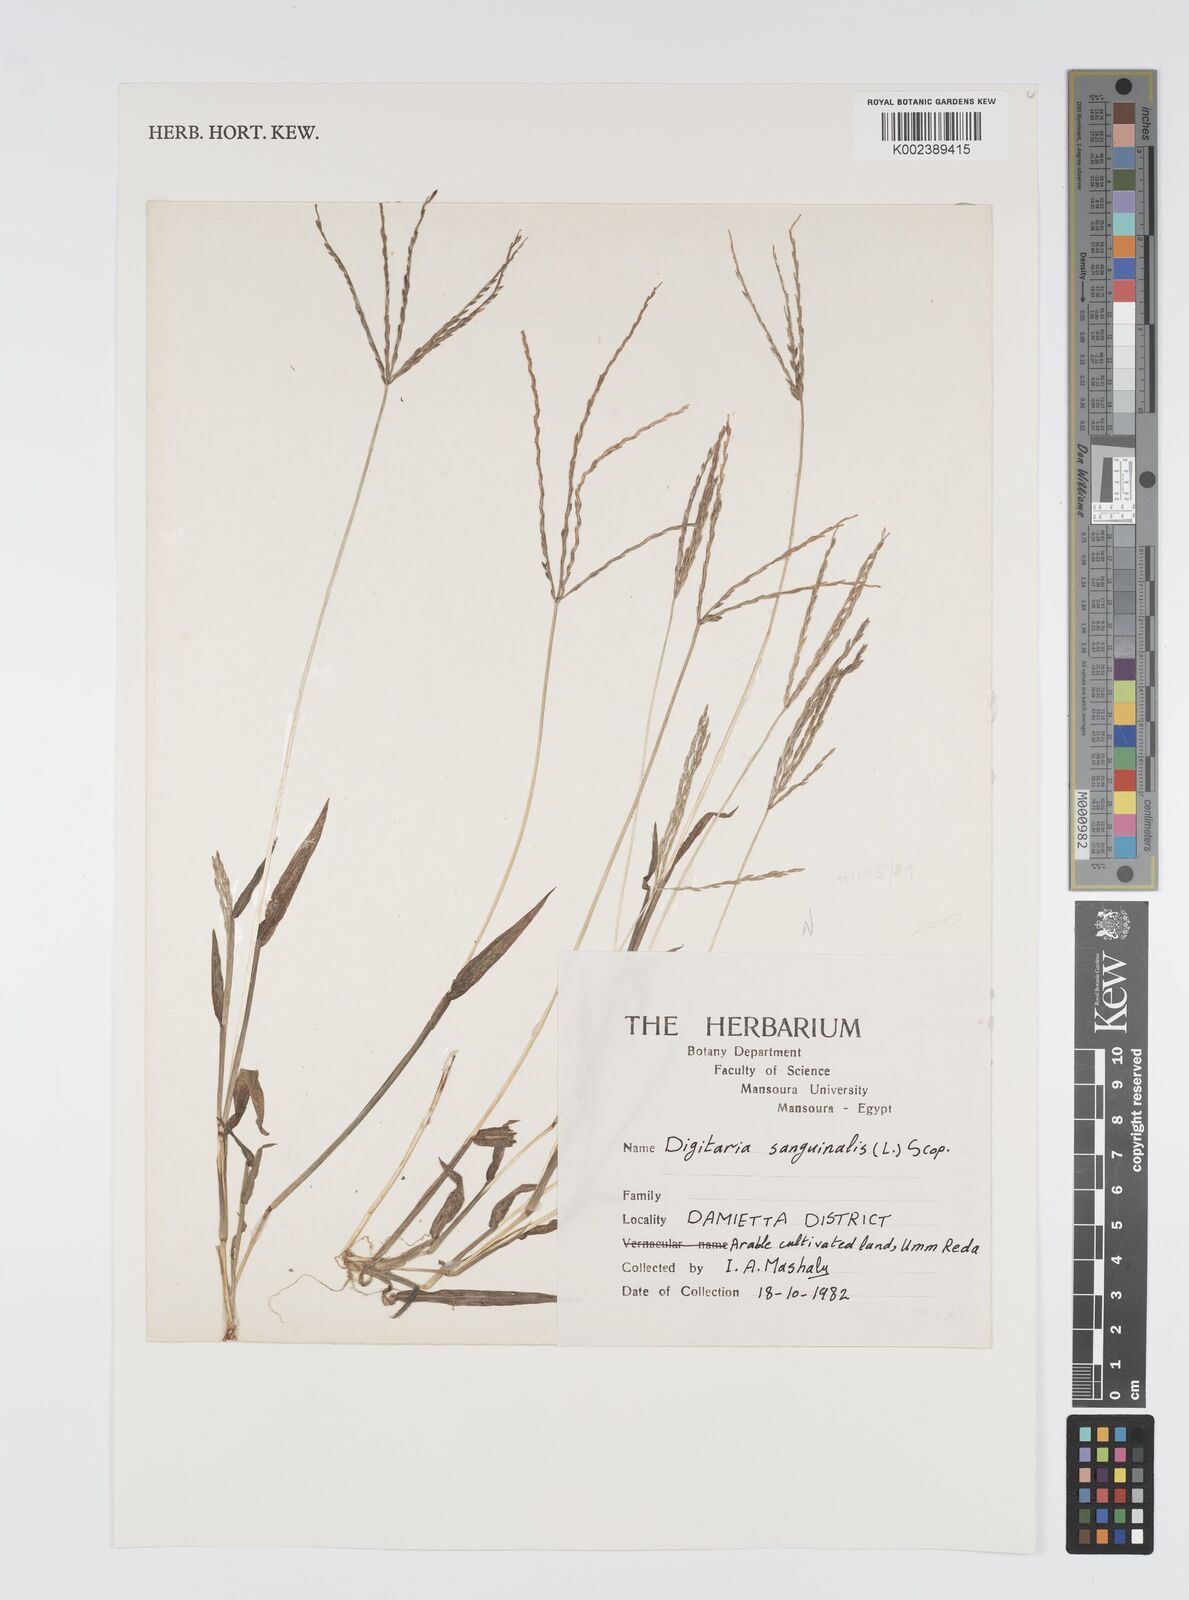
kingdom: Plantae
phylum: Tracheophyta
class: Liliopsida
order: Poales
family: Poaceae
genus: Digitaria
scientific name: Digitaria sanguinalis
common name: Hairy crabgrass
